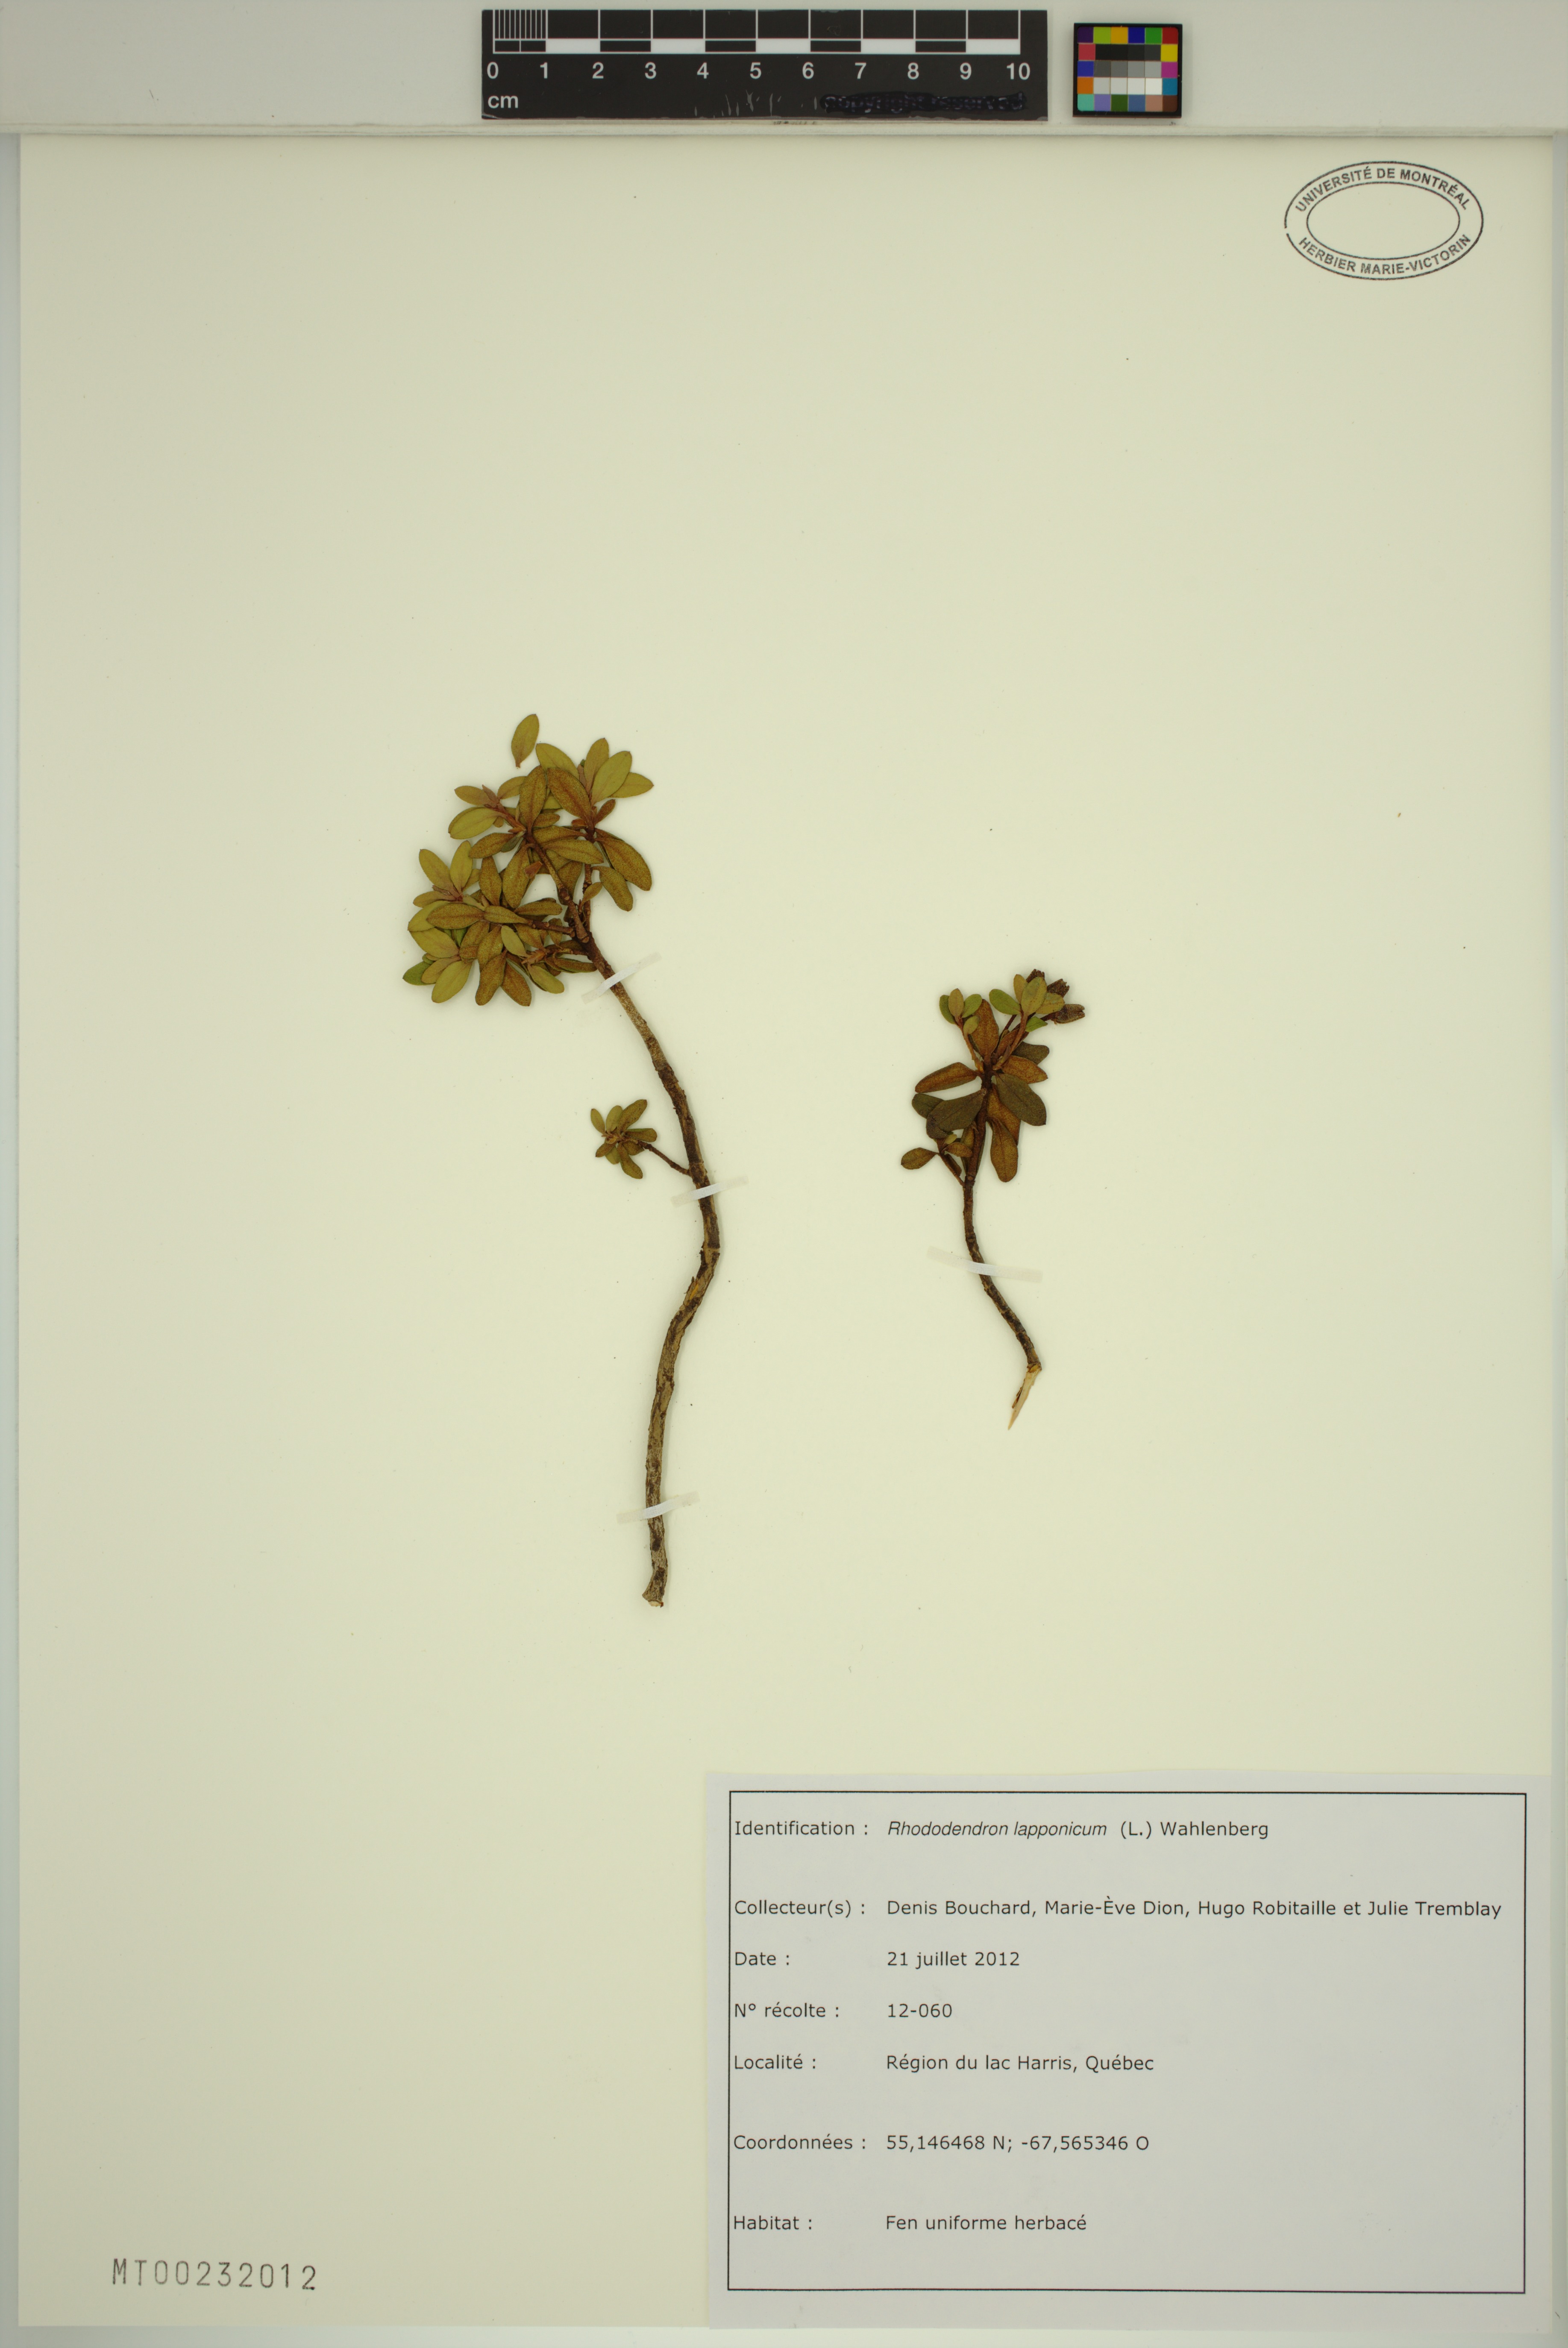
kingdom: Plantae
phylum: Tracheophyta
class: Magnoliopsida
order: Ericales
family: Ericaceae
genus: Rhododendron
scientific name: Rhododendron lapponicum
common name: Lapland rhododendron
